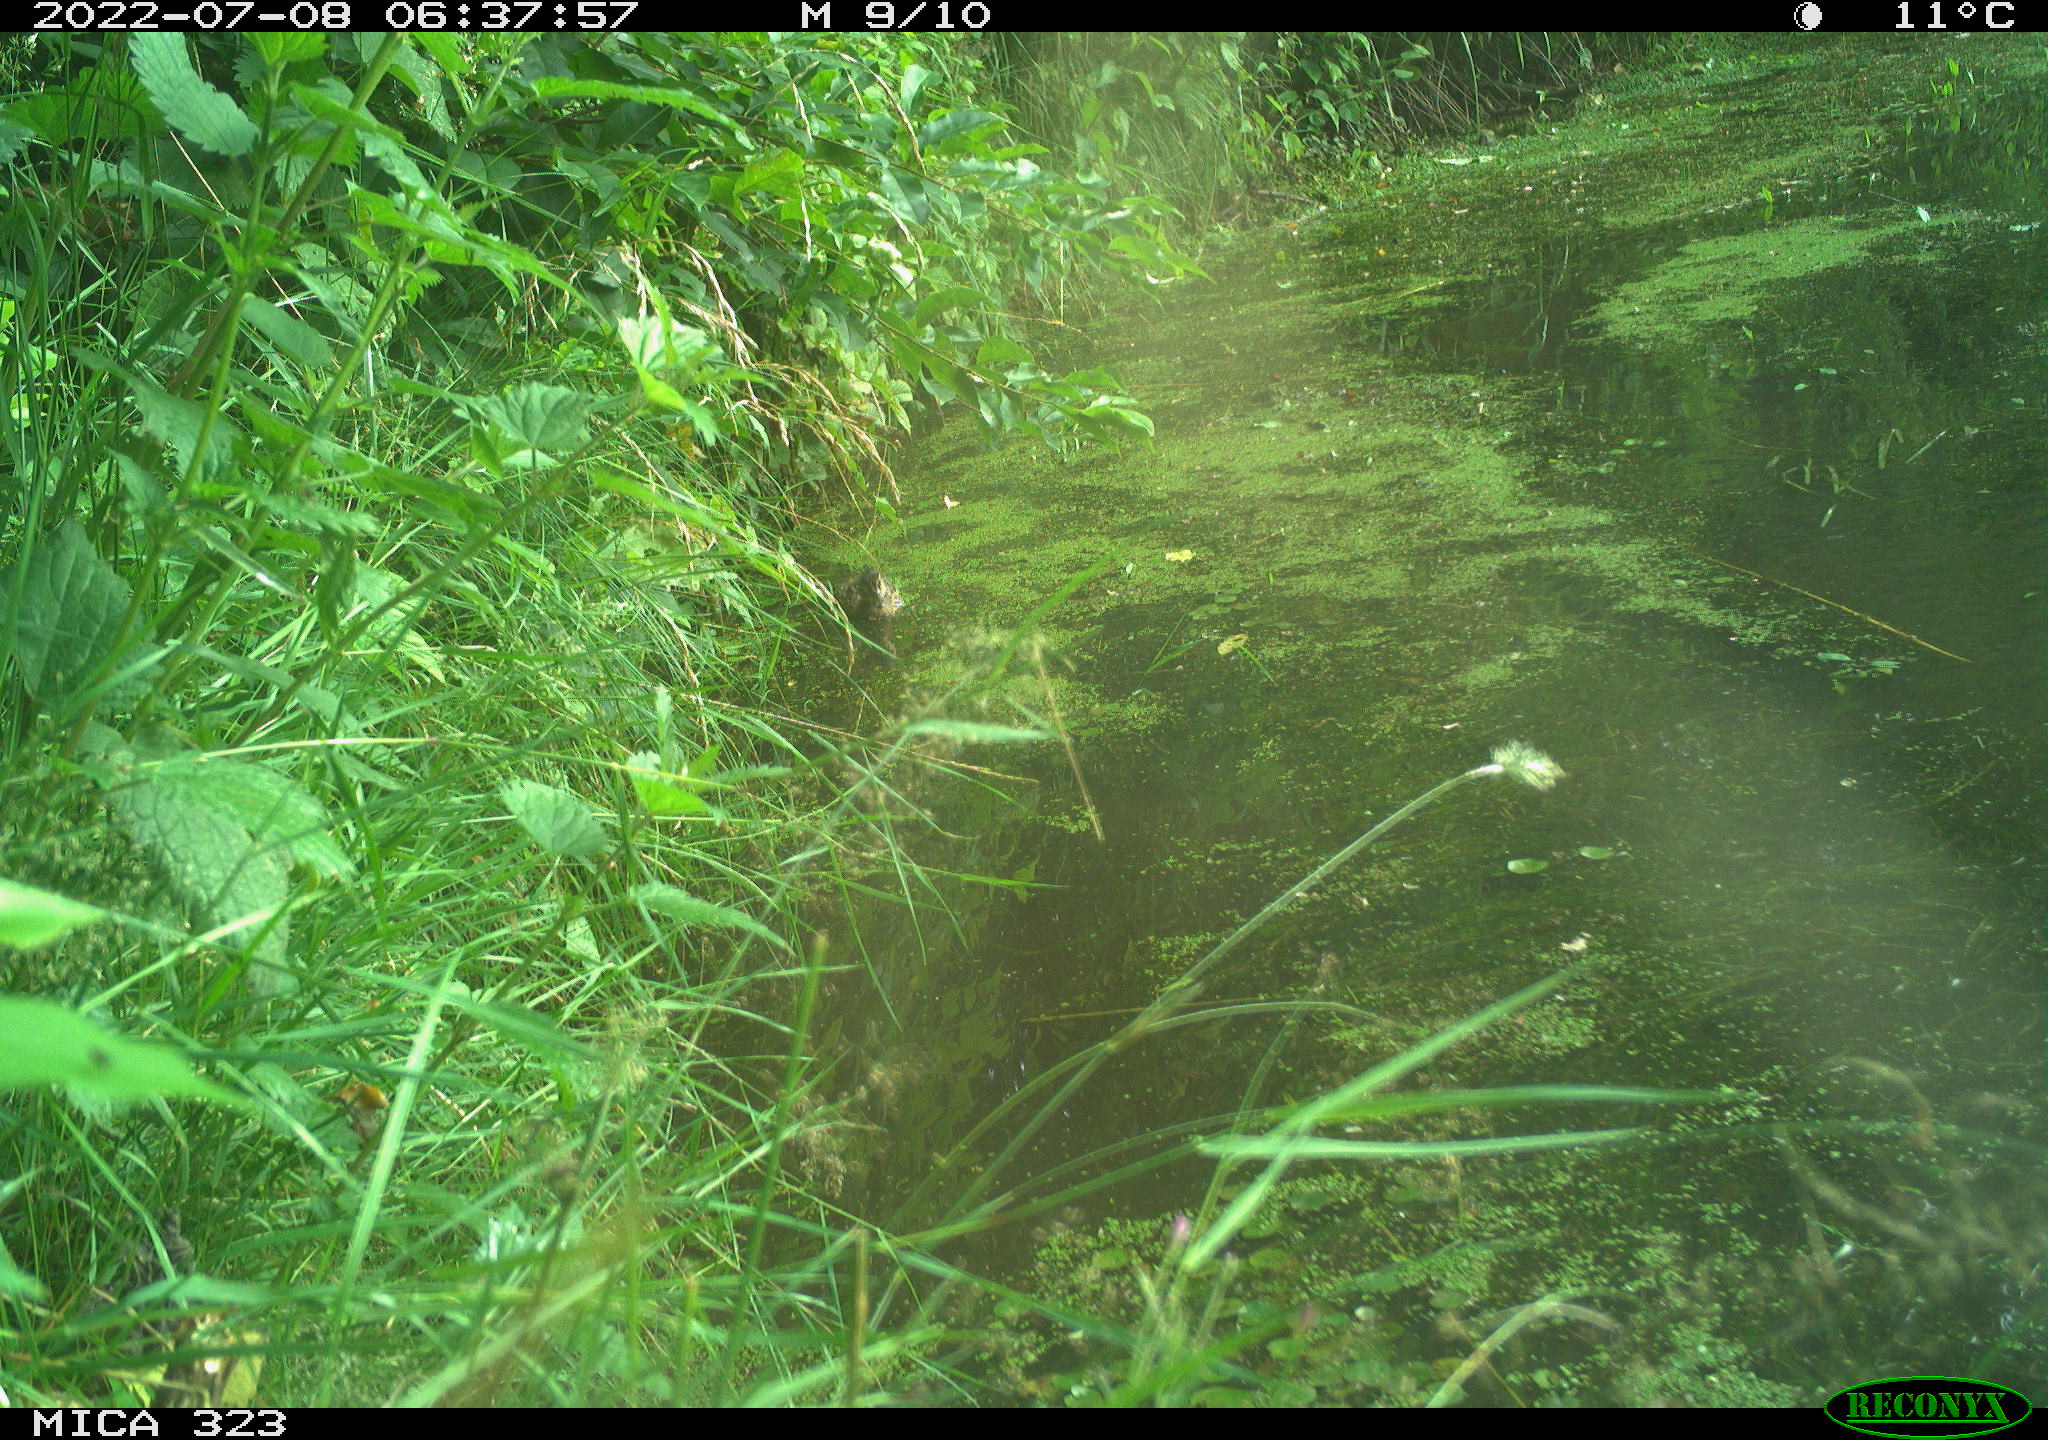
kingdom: Animalia
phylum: Chordata
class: Aves
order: Anseriformes
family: Anatidae
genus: Anas
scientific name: Anas platyrhynchos
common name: Mallard
